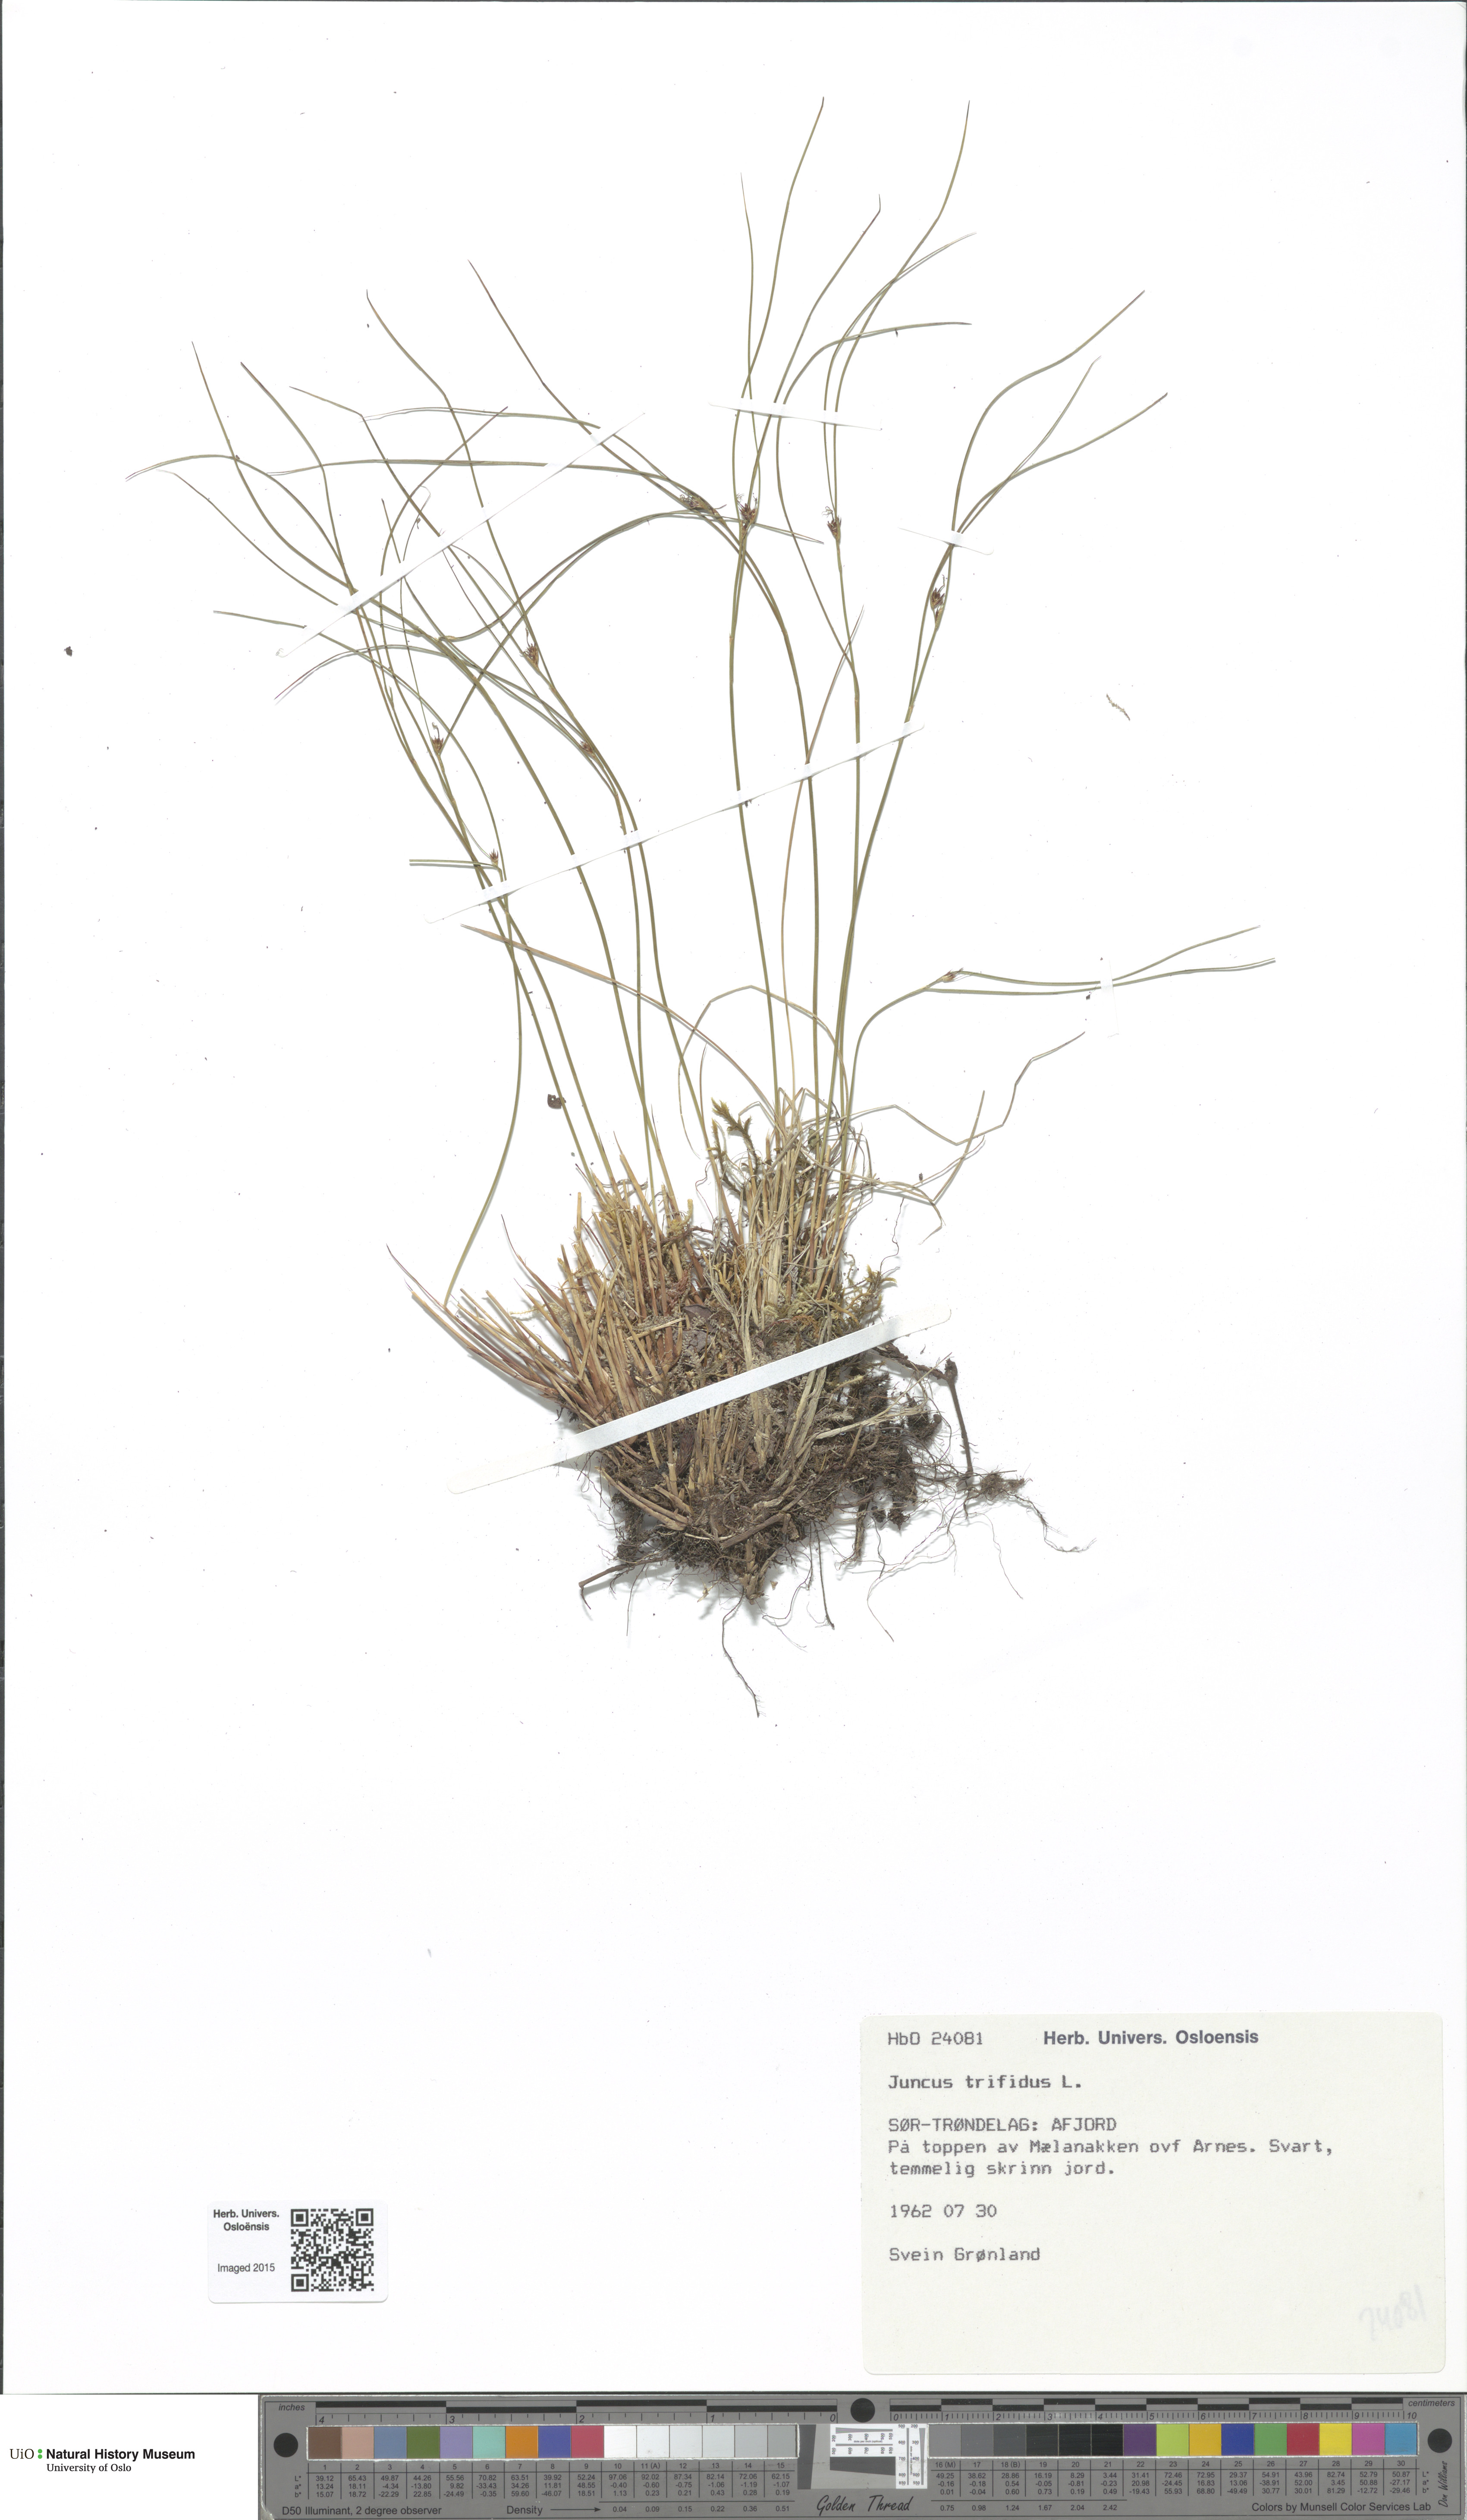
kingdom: Plantae
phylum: Tracheophyta
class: Liliopsida
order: Poales
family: Juncaceae
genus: Oreojuncus
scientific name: Oreojuncus trifidus
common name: Highland rush
